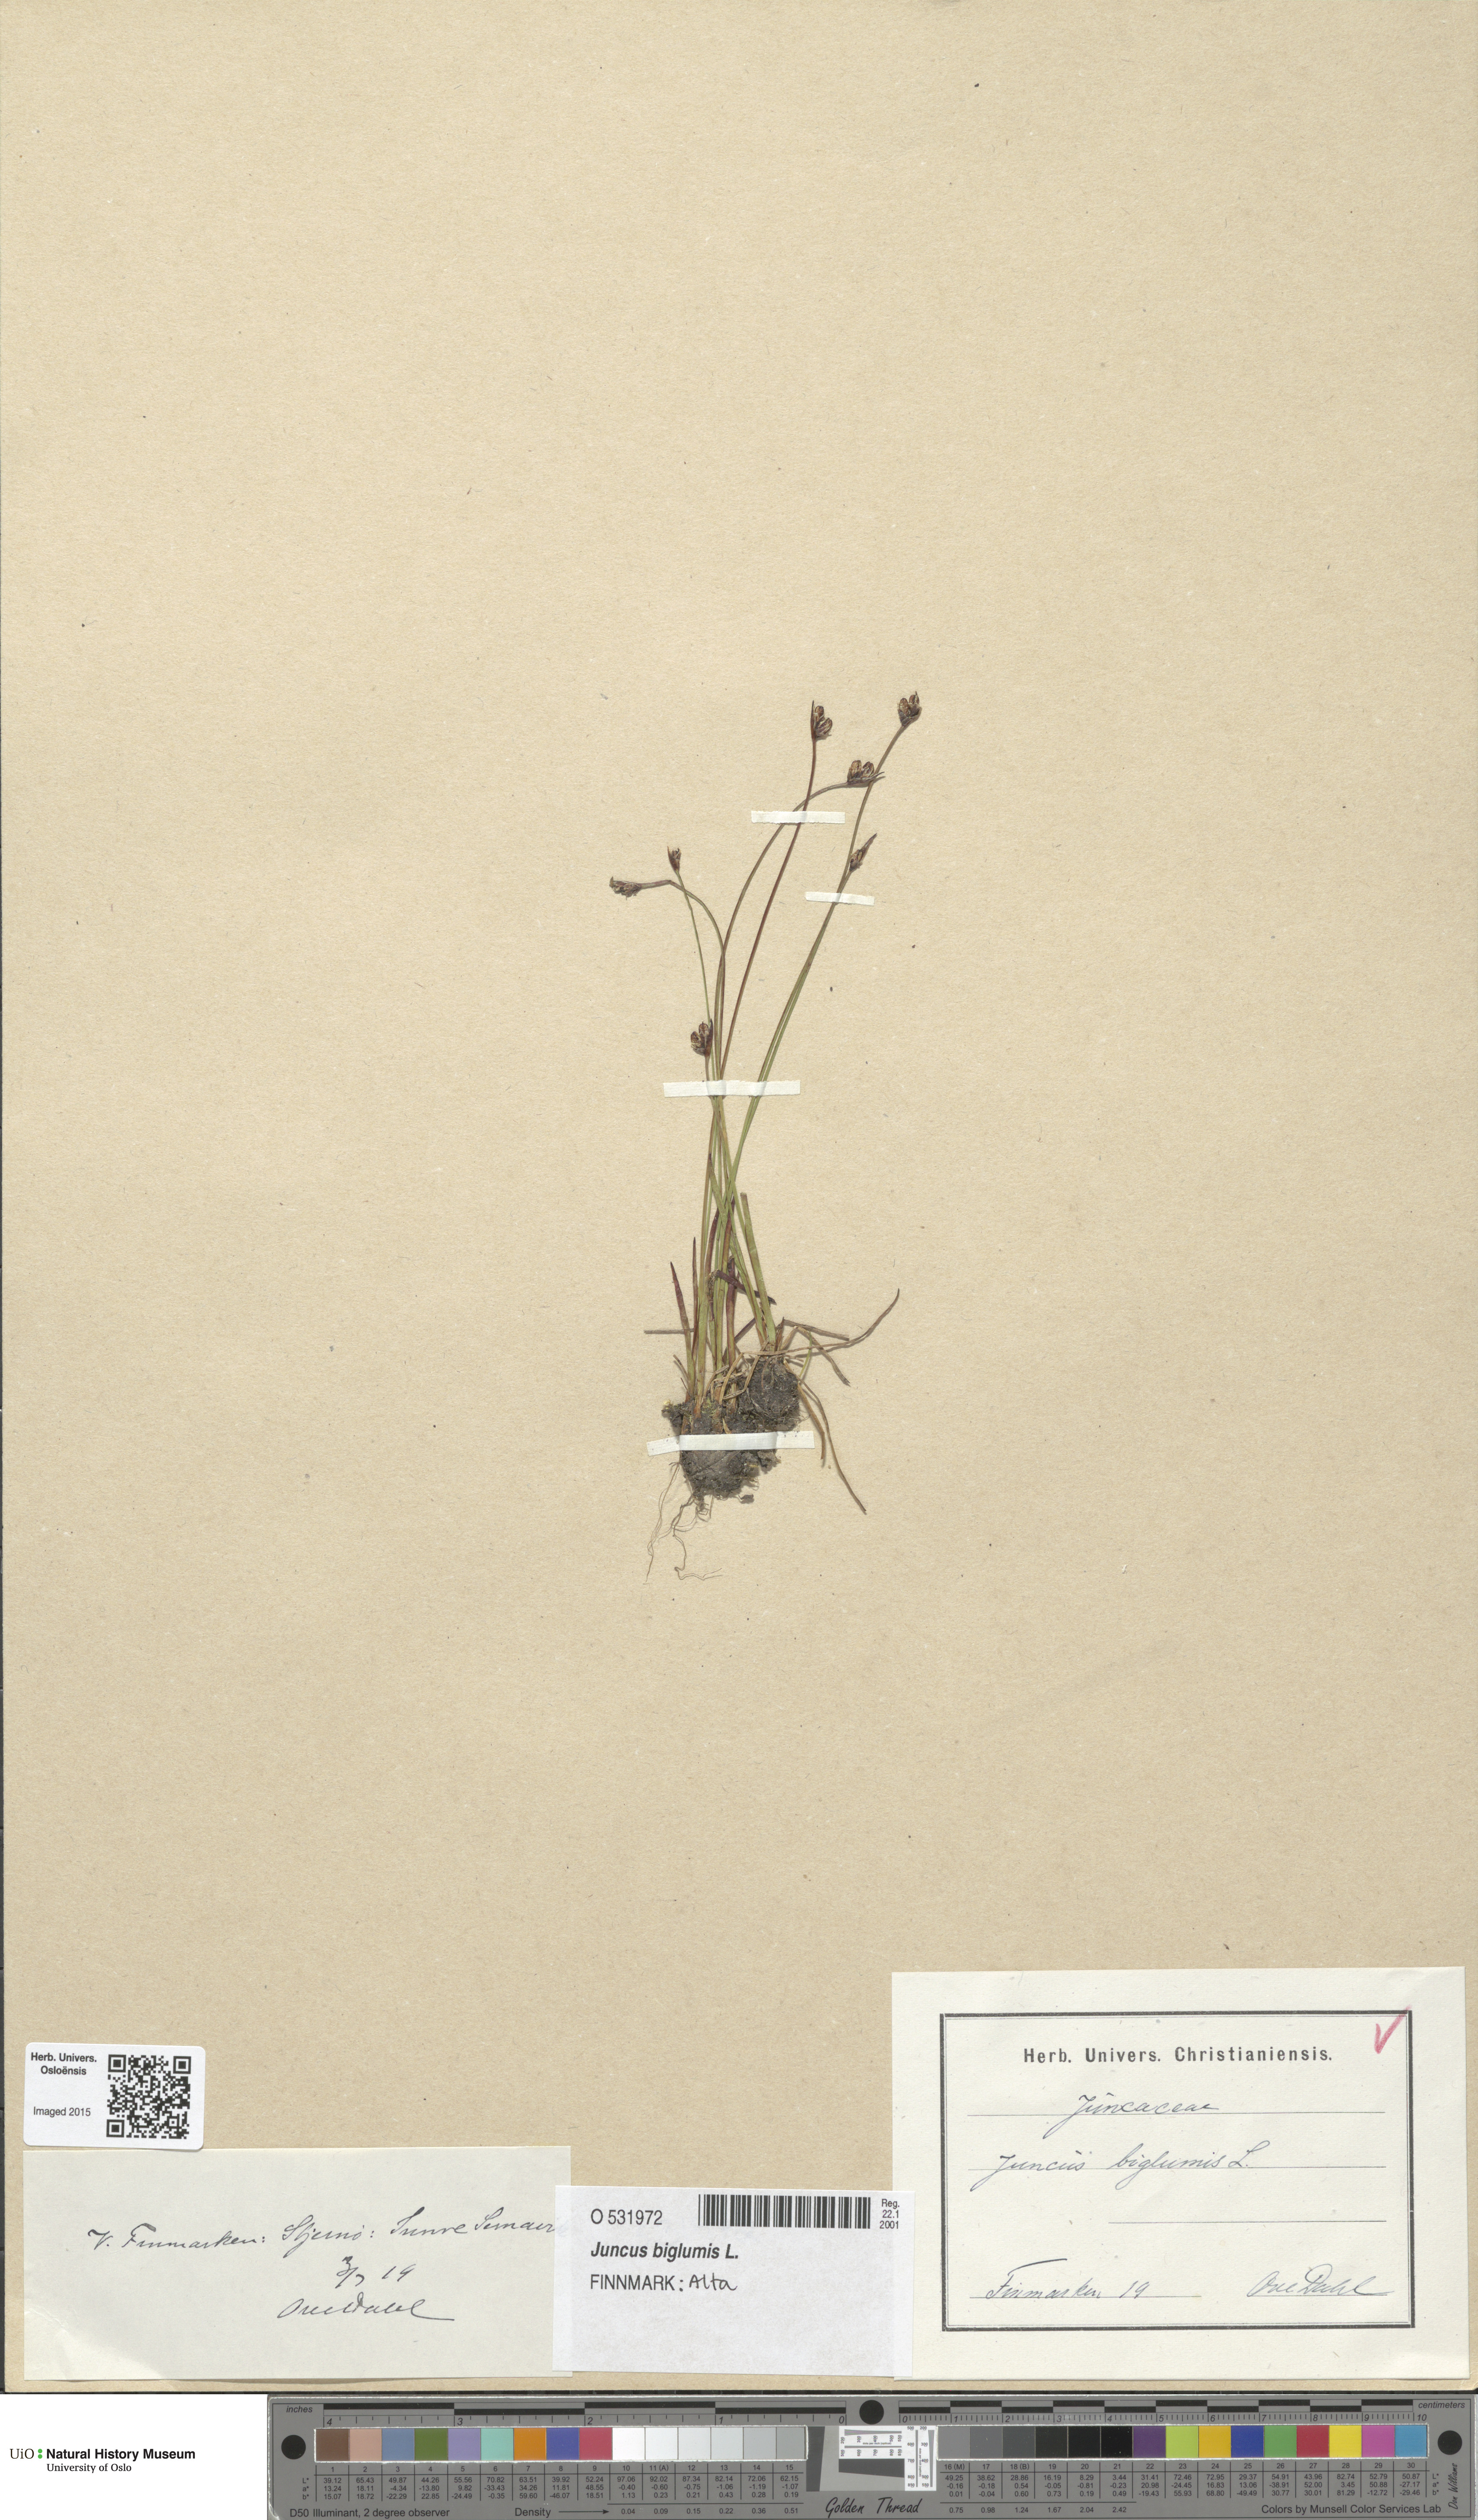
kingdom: Plantae
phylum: Tracheophyta
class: Liliopsida
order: Poales
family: Juncaceae
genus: Juncus
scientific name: Juncus biglumis
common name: Two-flowered rush
